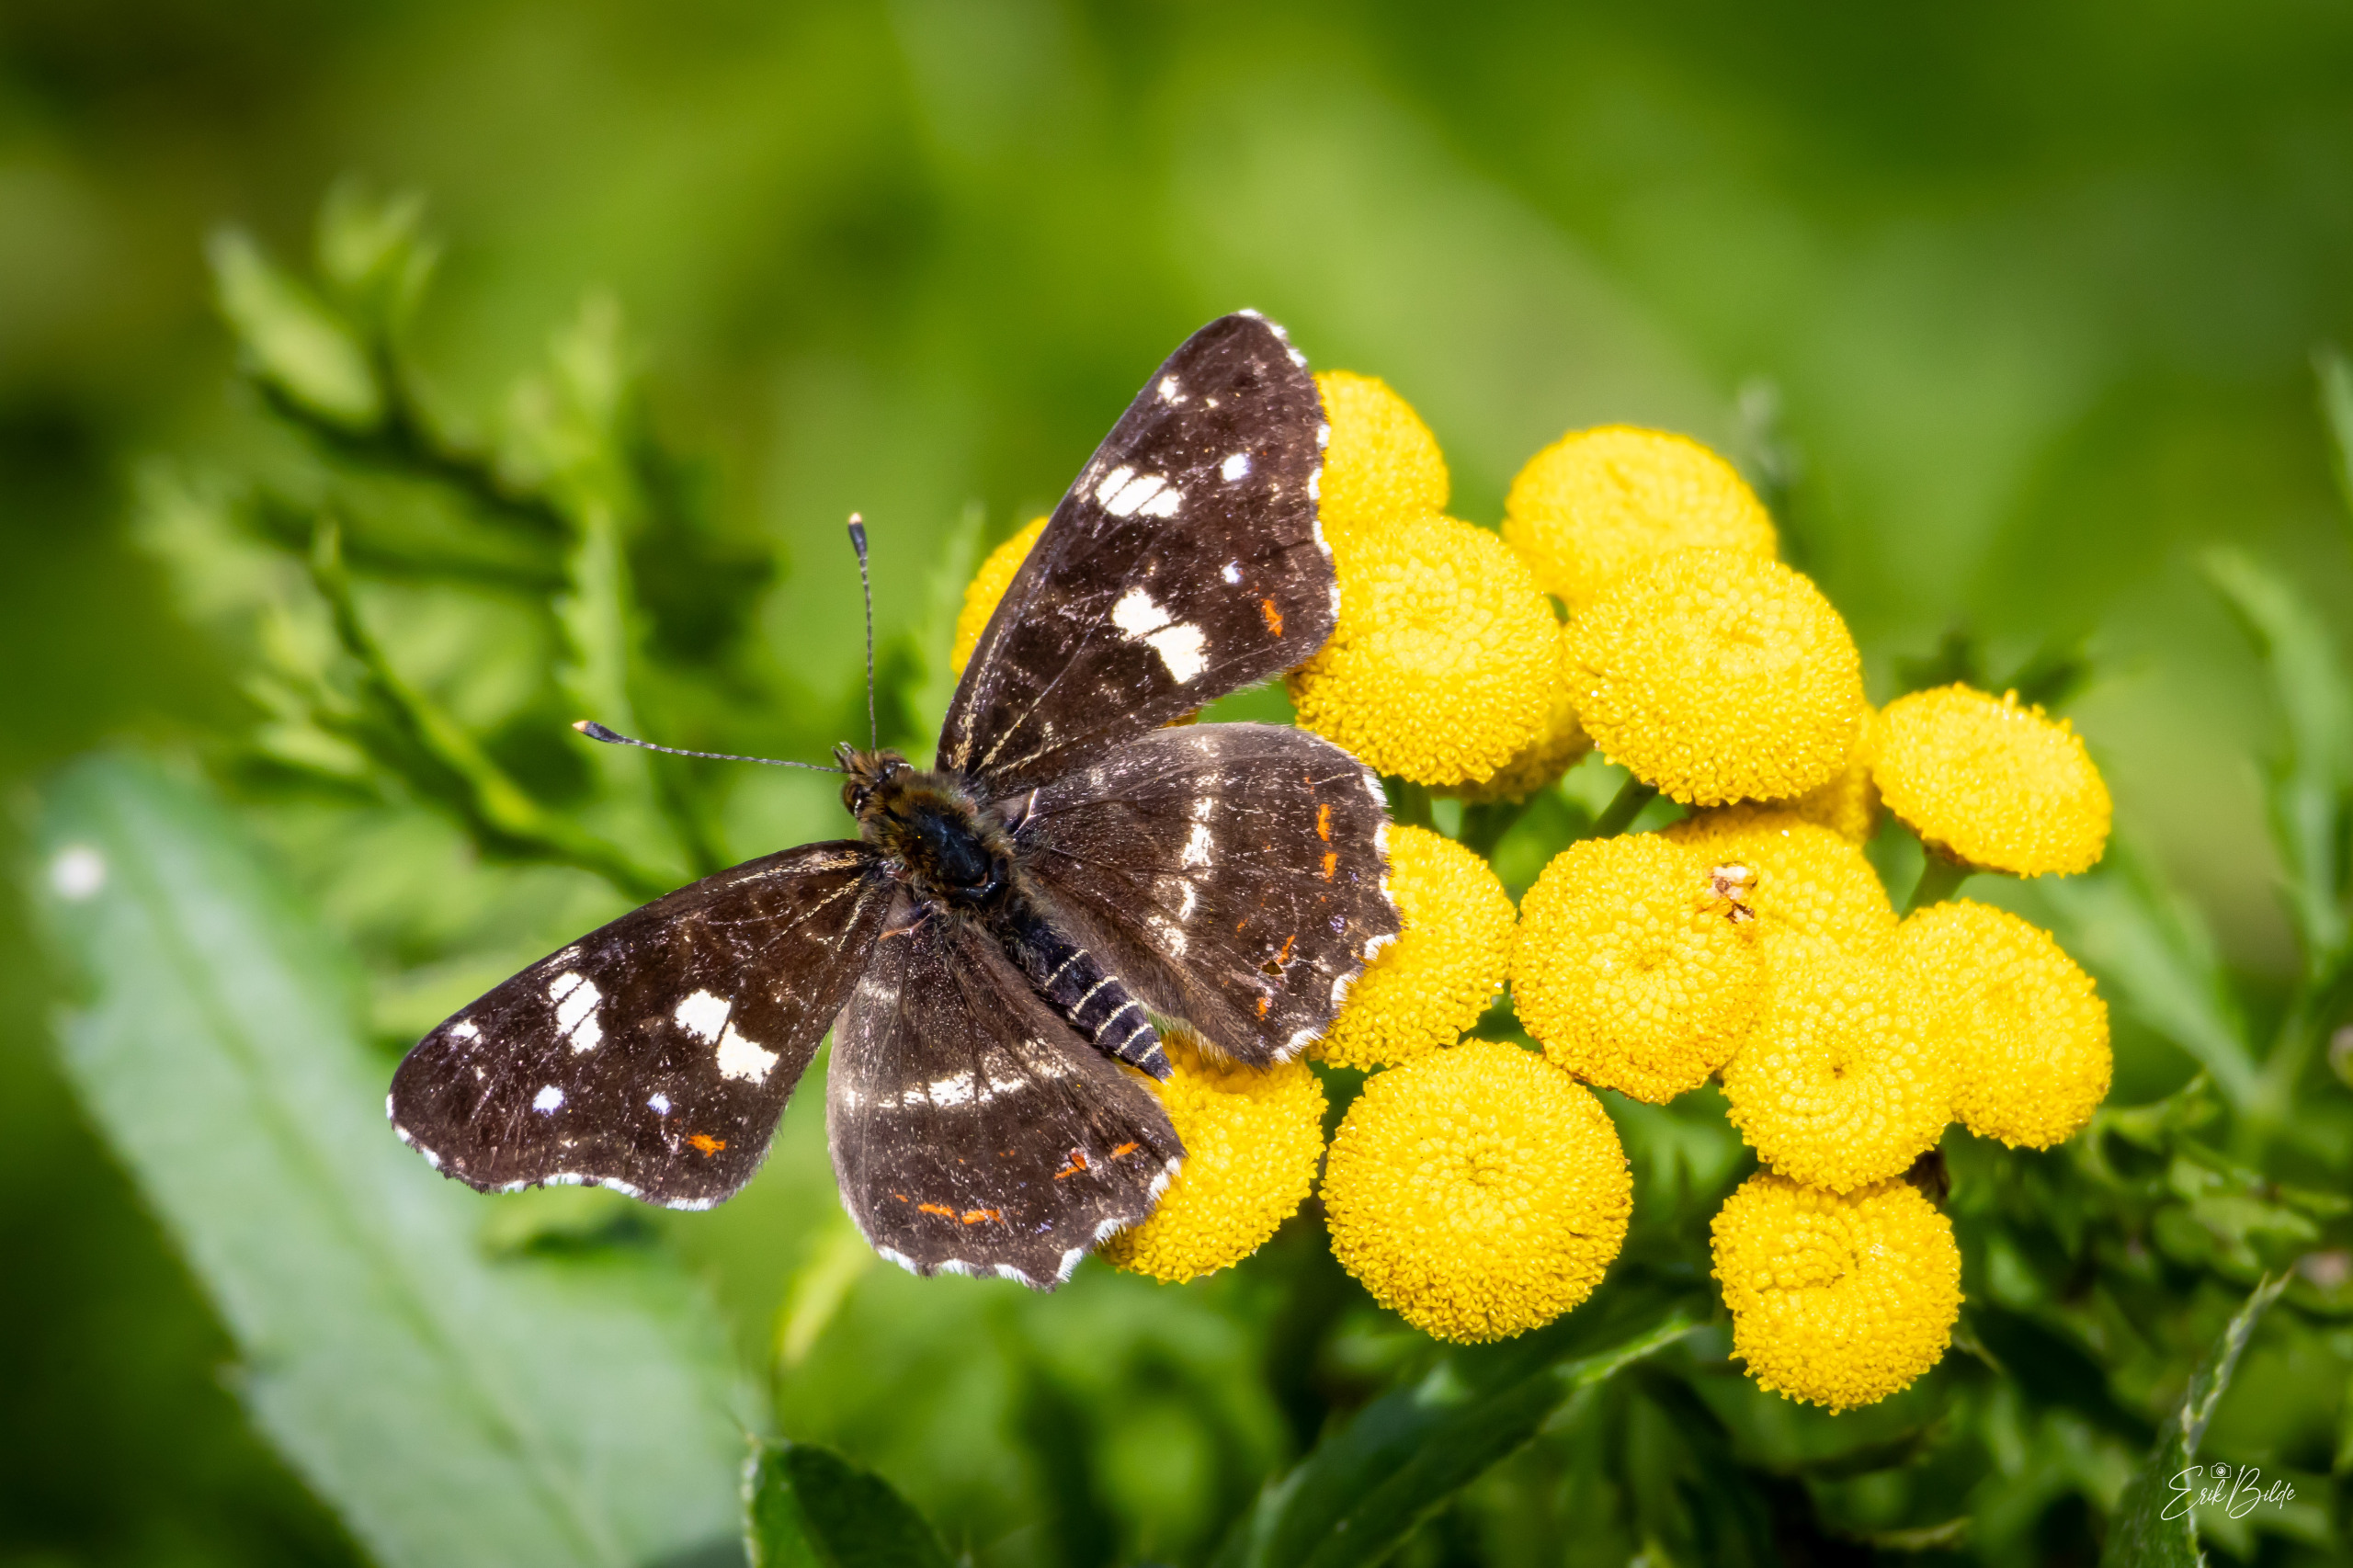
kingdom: Animalia
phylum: Arthropoda
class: Insecta
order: Lepidoptera
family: Nymphalidae
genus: Araschnia
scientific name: Araschnia levana
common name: Nældesommerfugl
